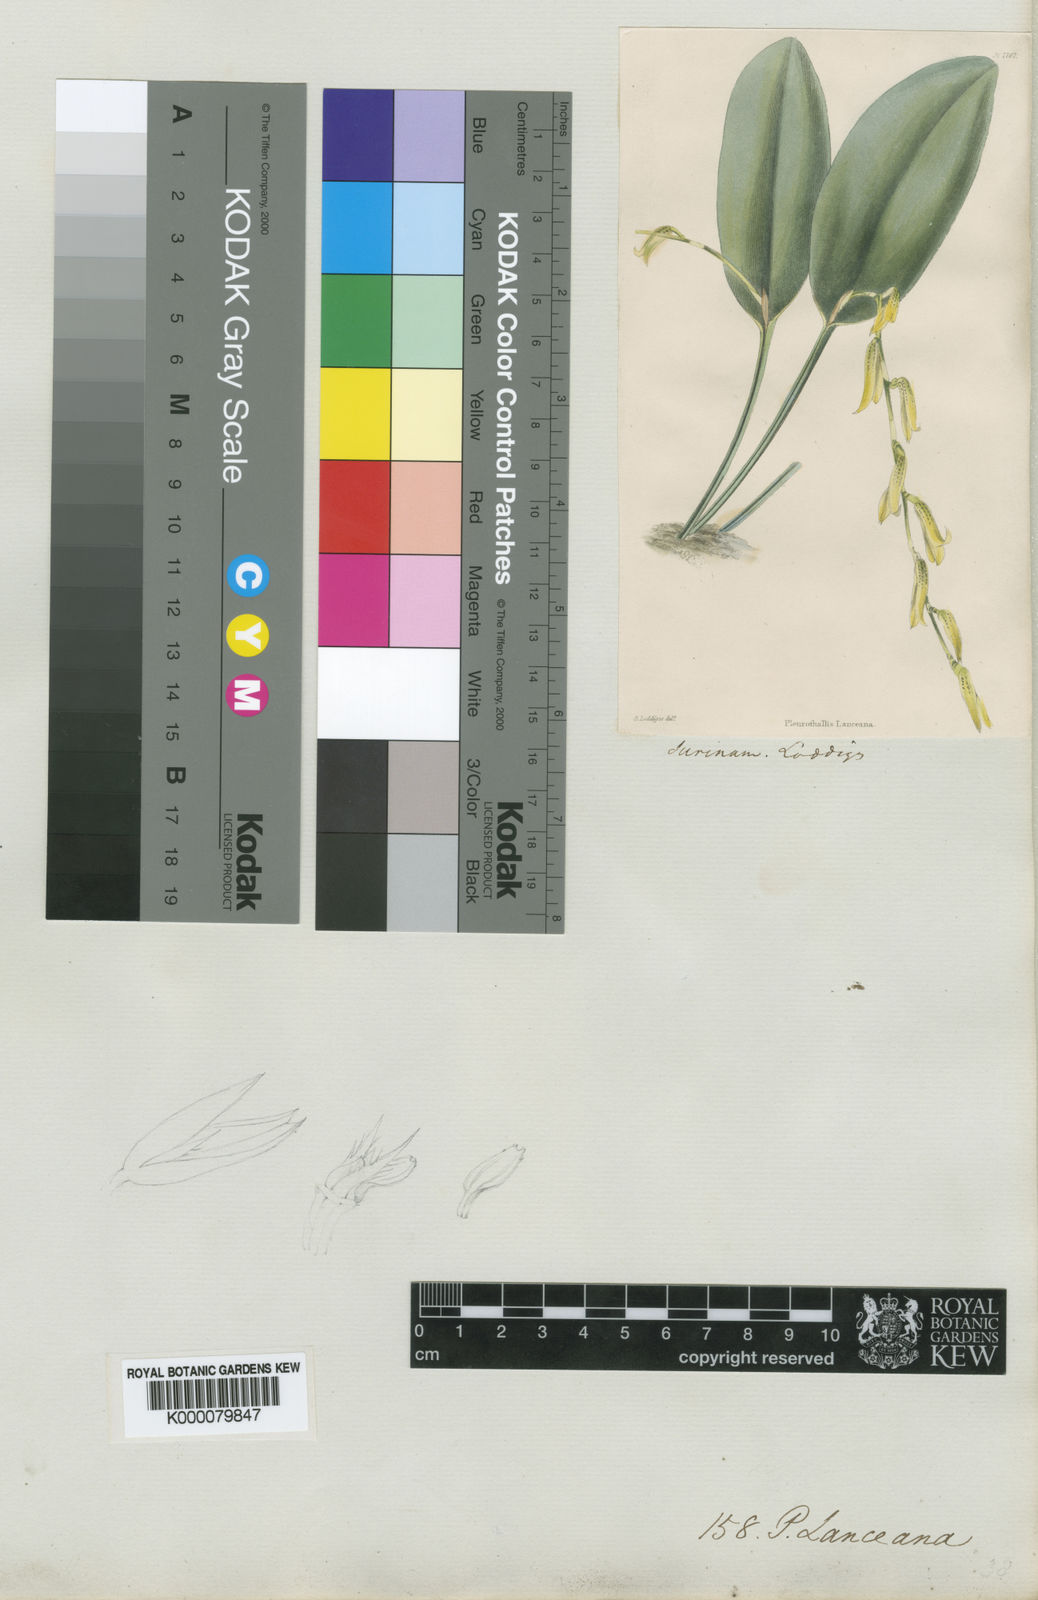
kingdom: Plantae
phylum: Tracheophyta
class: Liliopsida
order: Asparagales
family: Orchidaceae
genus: Pleurothallis
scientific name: Pleurothallis
